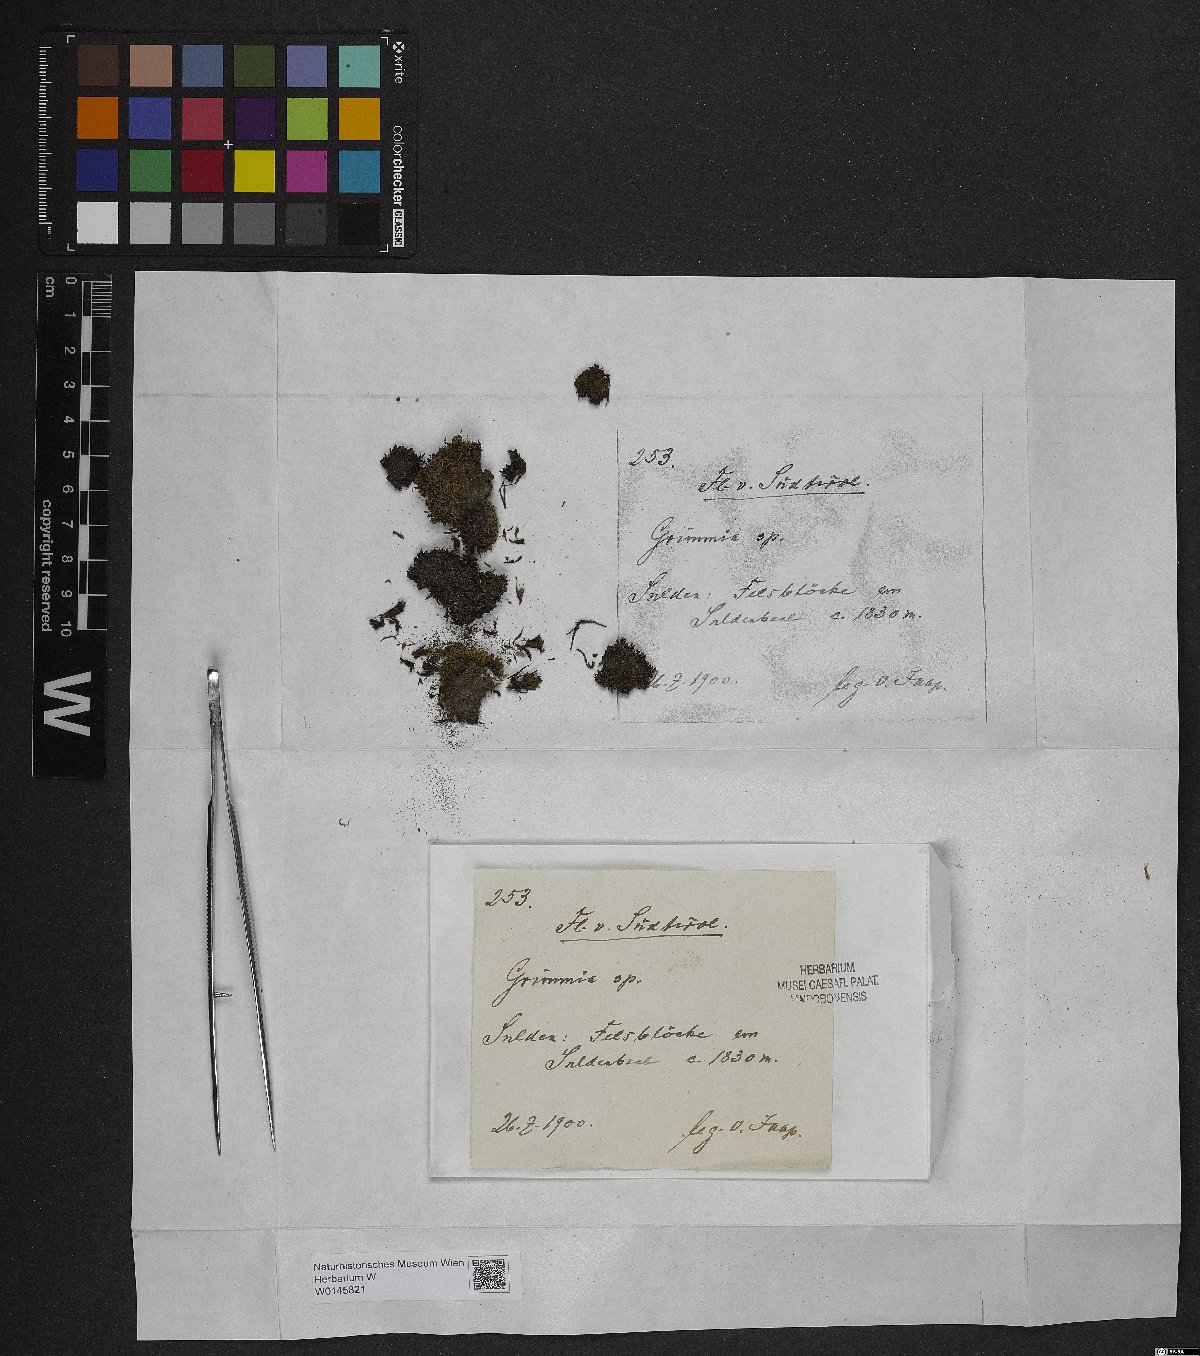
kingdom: Plantae
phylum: Bryophyta
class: Bryopsida
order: Grimmiales
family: Grimmiaceae
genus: Grimmia
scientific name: Grimmia
